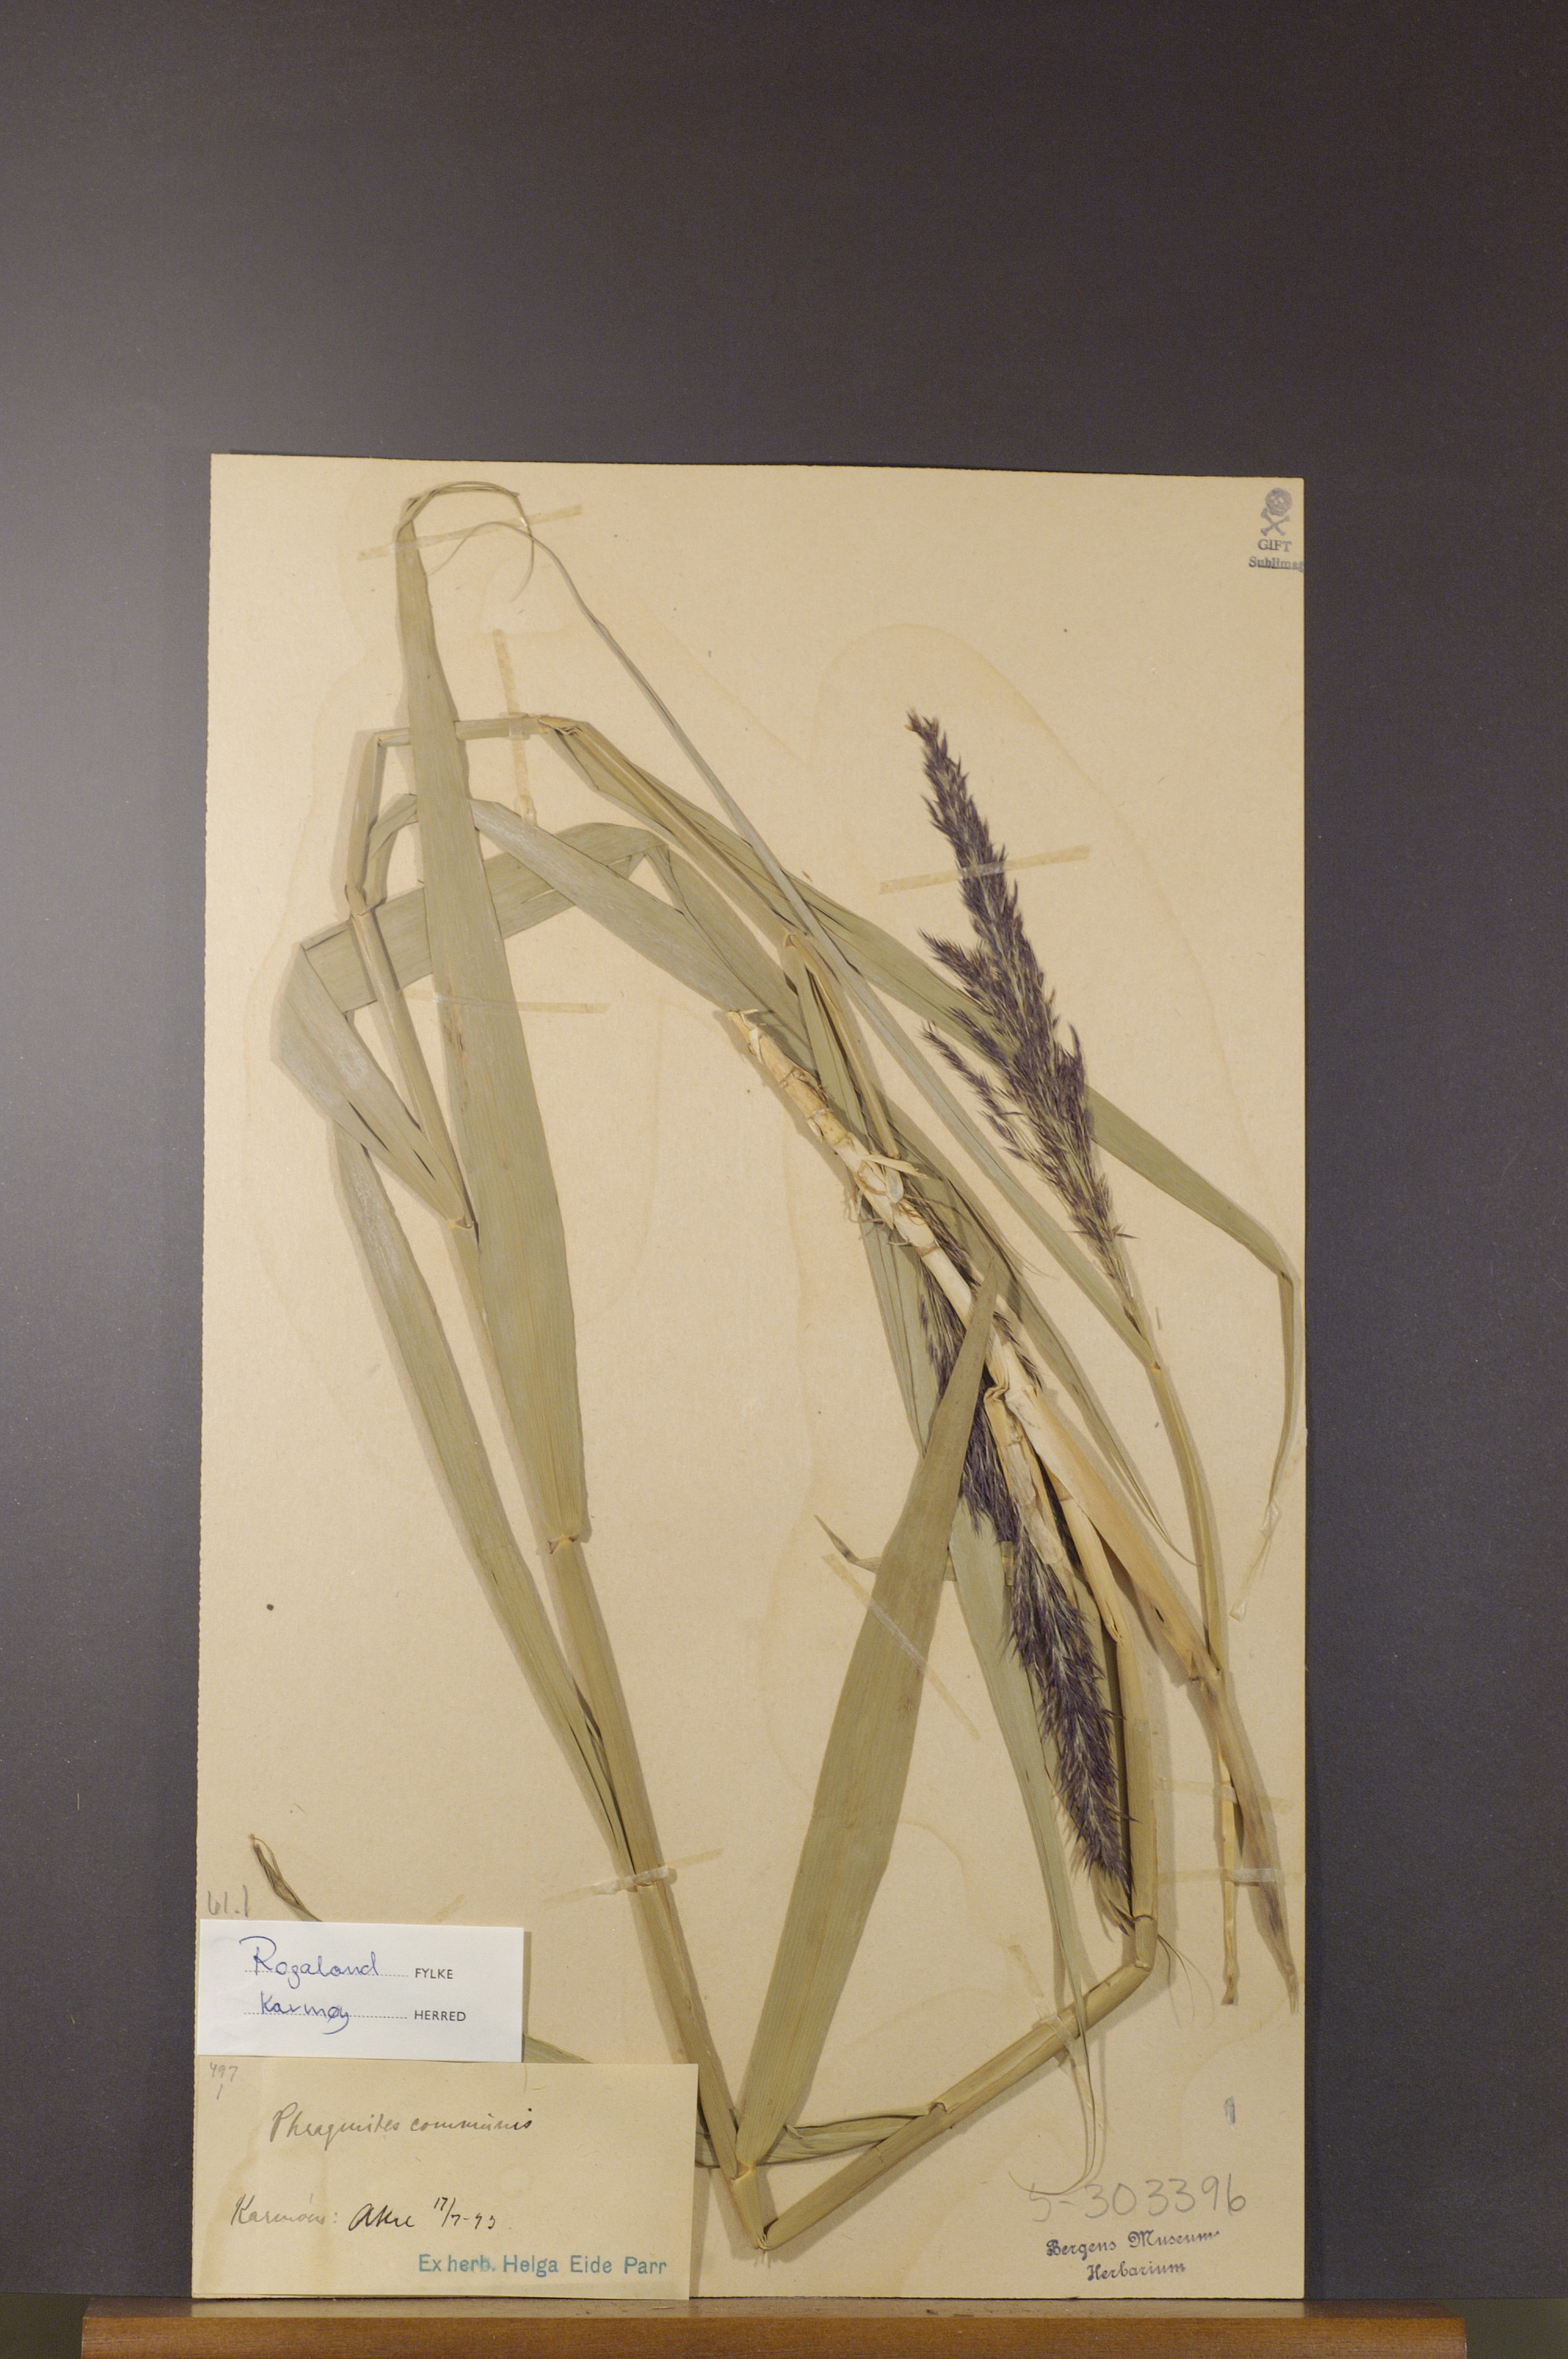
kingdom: Plantae
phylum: Tracheophyta
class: Liliopsida
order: Poales
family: Poaceae
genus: Phragmites
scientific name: Phragmites australis
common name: Common reed
